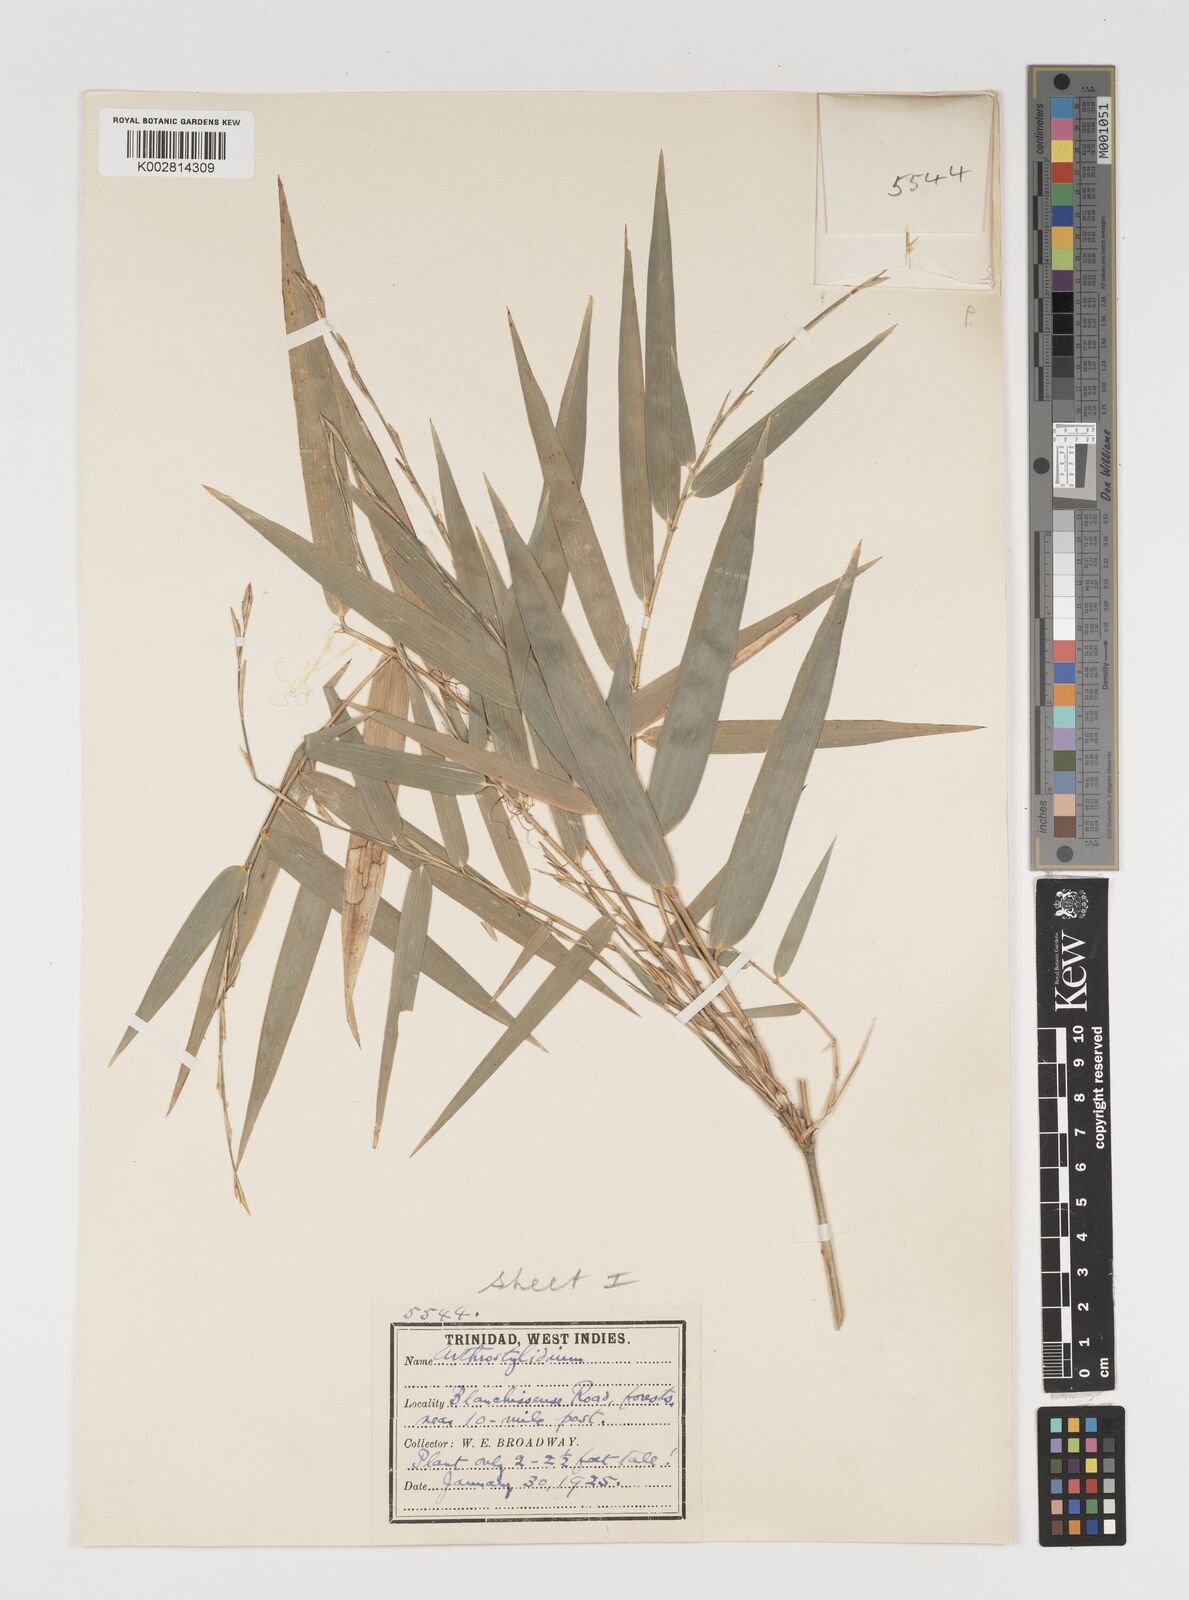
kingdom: Plantae
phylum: Tracheophyta
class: Liliopsida
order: Poales
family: Poaceae
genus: Arthrostylidium
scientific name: Arthrostylidium
